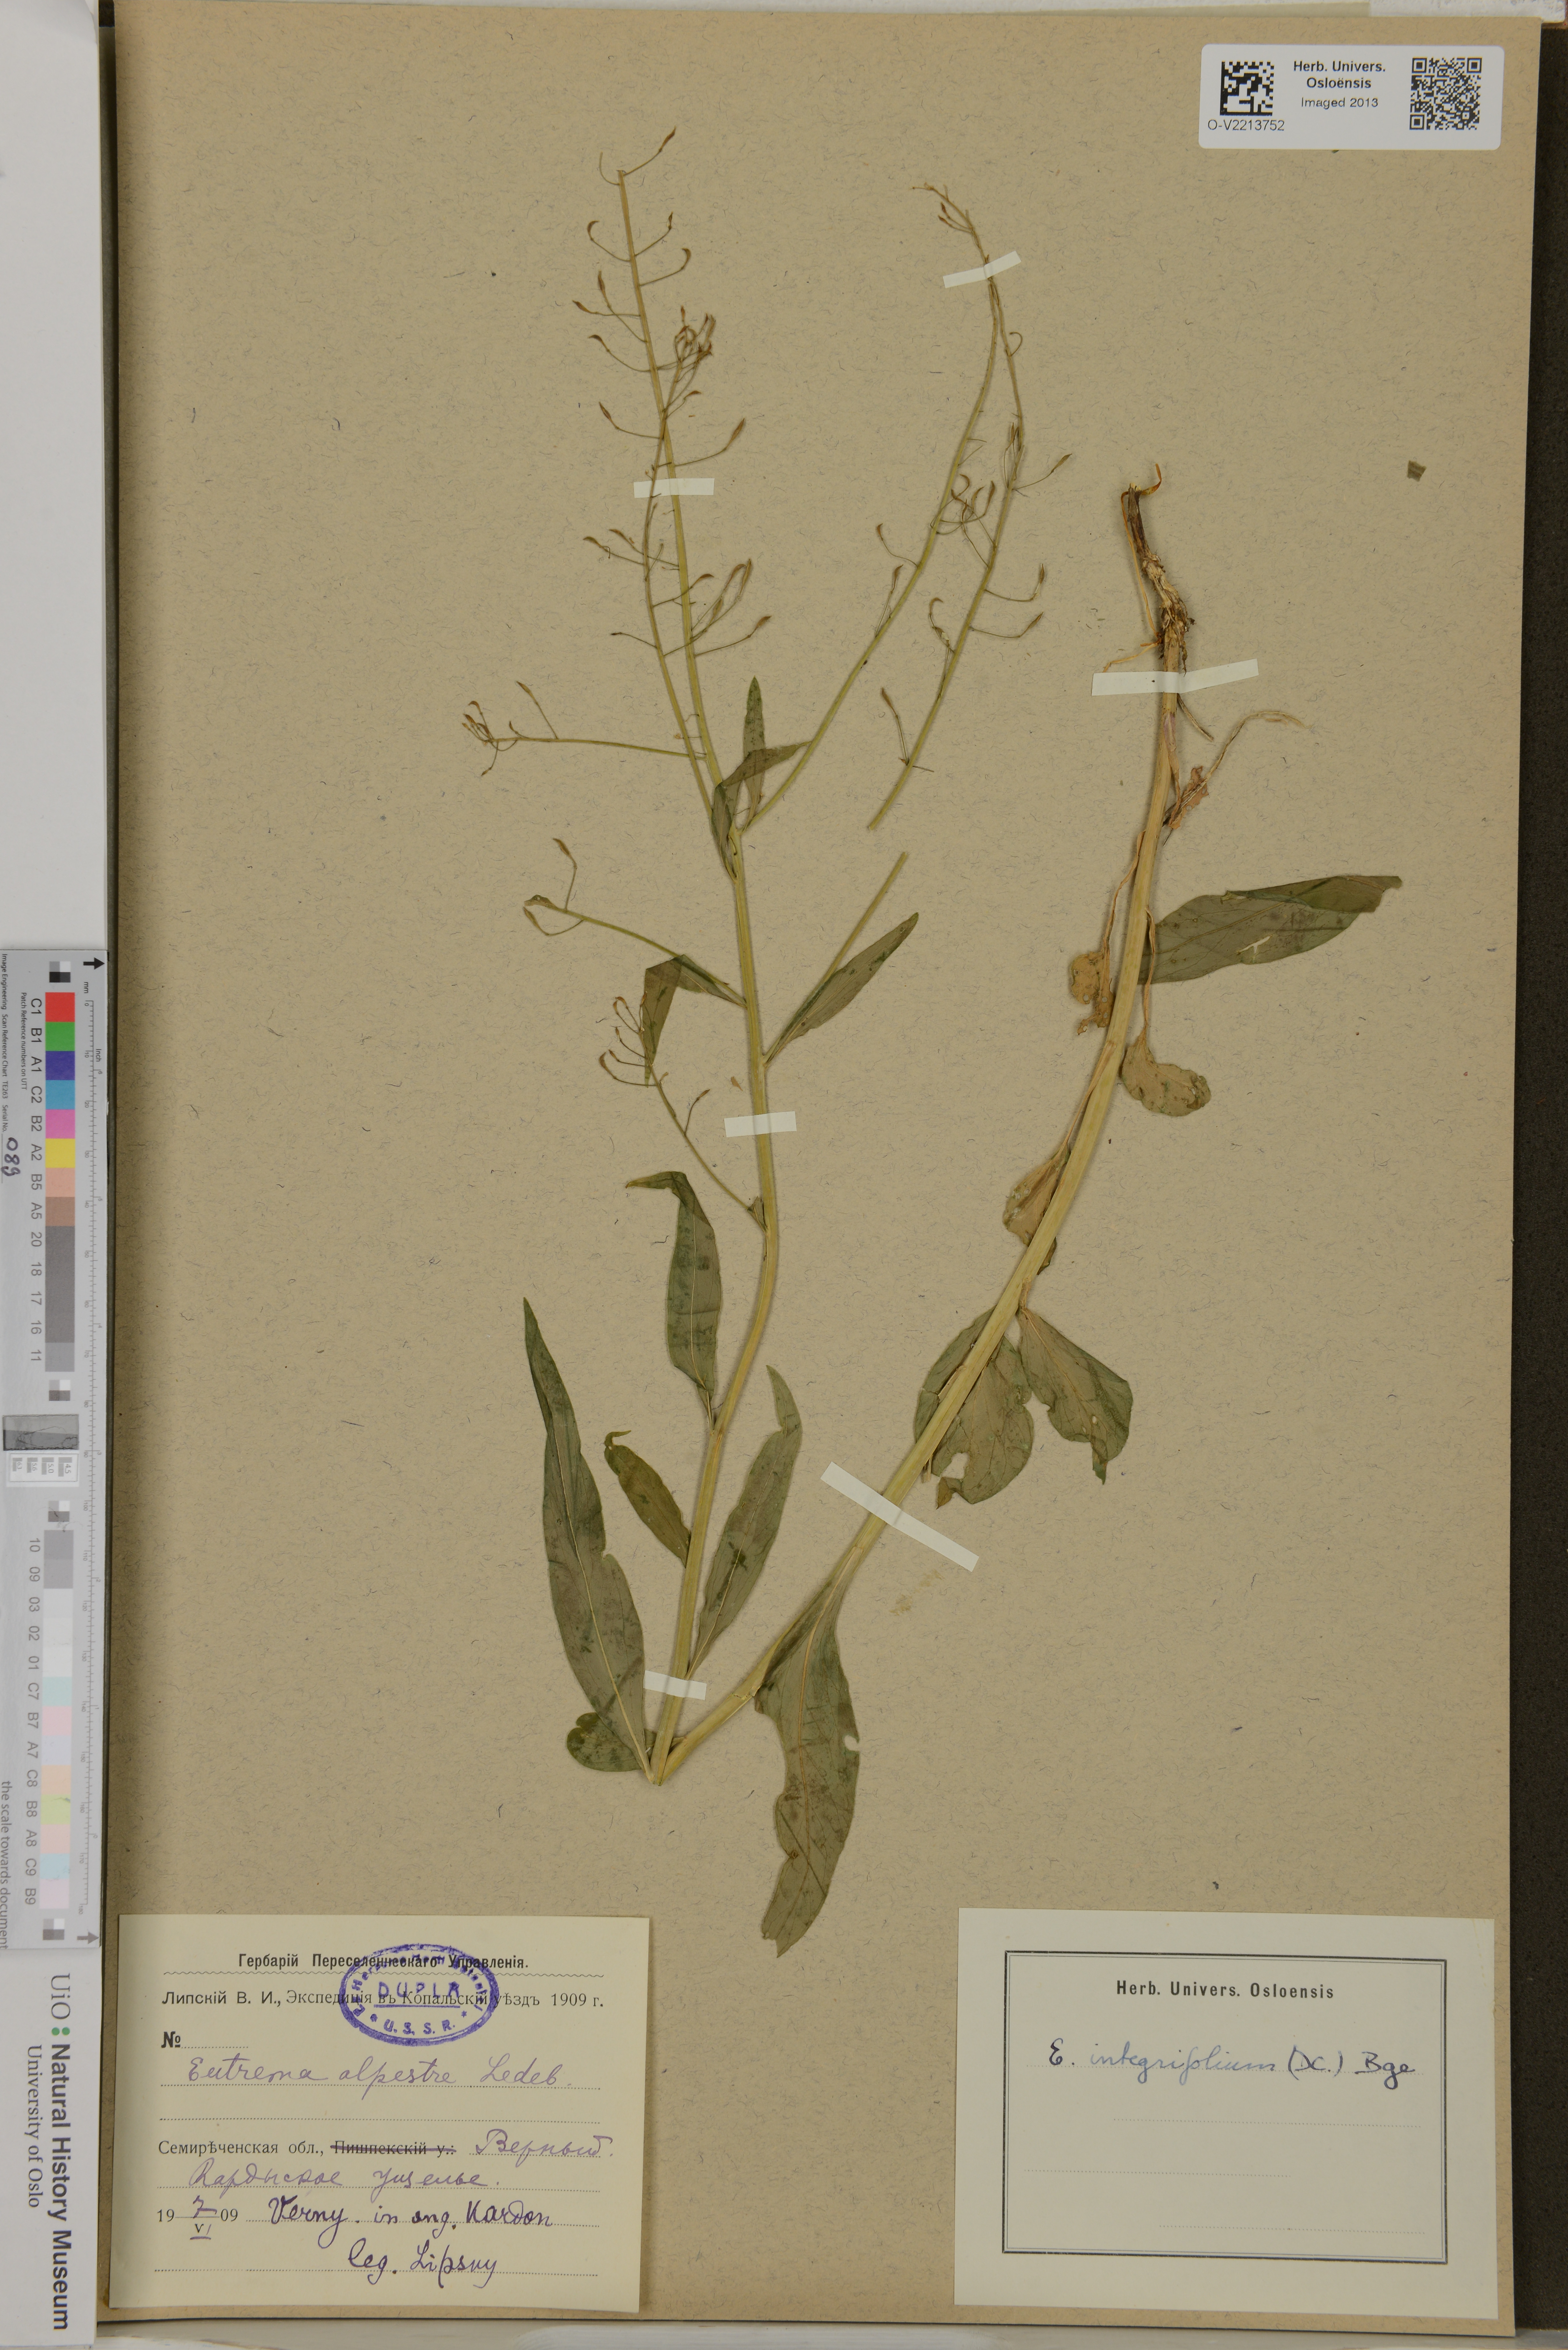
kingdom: Plantae
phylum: Tracheophyta
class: Magnoliopsida
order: Brassicales
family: Brassicaceae
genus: Eutrema
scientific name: Eutrema integrifolium
